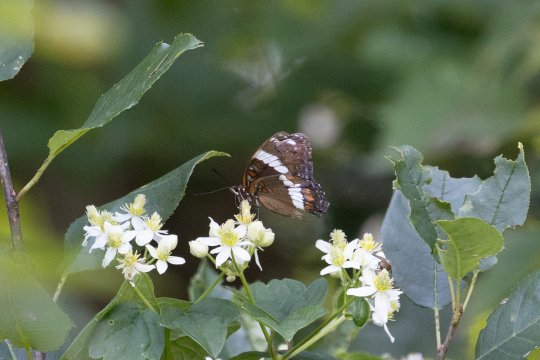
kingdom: Animalia
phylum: Arthropoda
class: Insecta
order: Lepidoptera
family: Nymphalidae
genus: Limenitis
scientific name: Limenitis arthemis
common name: Red-spotted Admiral
